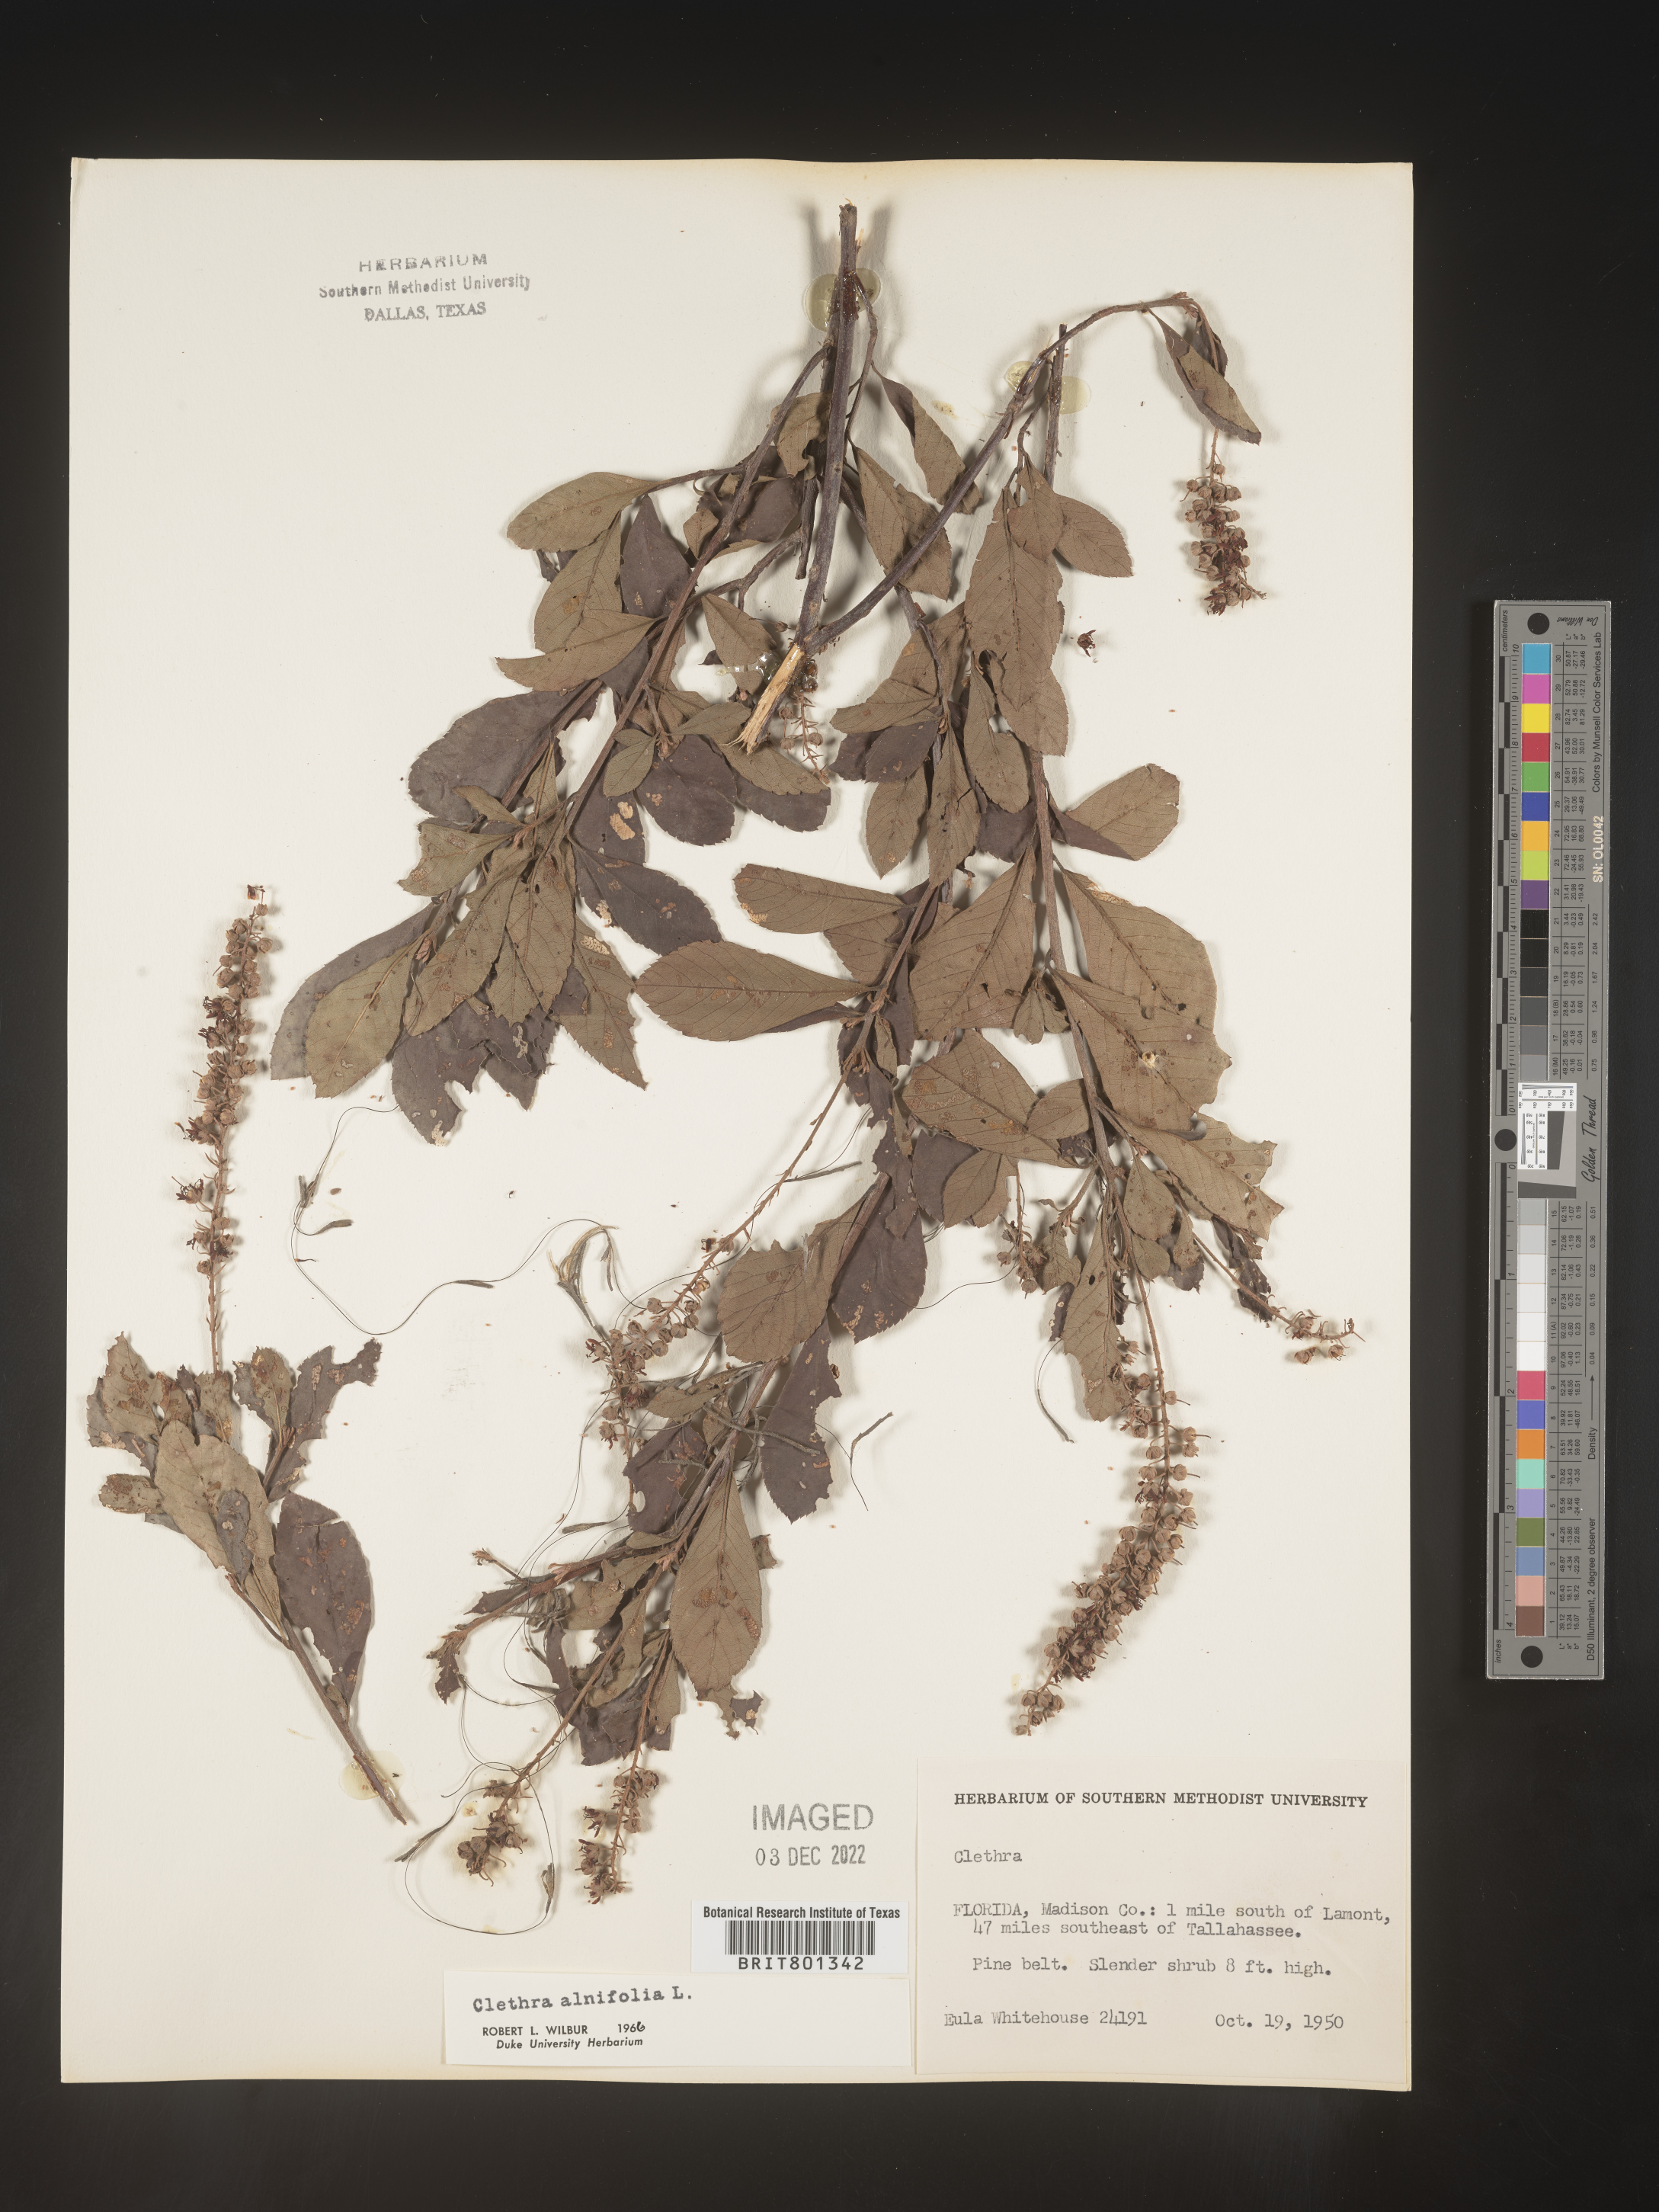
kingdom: Plantae
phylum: Tracheophyta
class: Magnoliopsida
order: Ericales
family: Clethraceae
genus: Clethra
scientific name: Clethra alnifolia
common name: Sweet pepperbush
